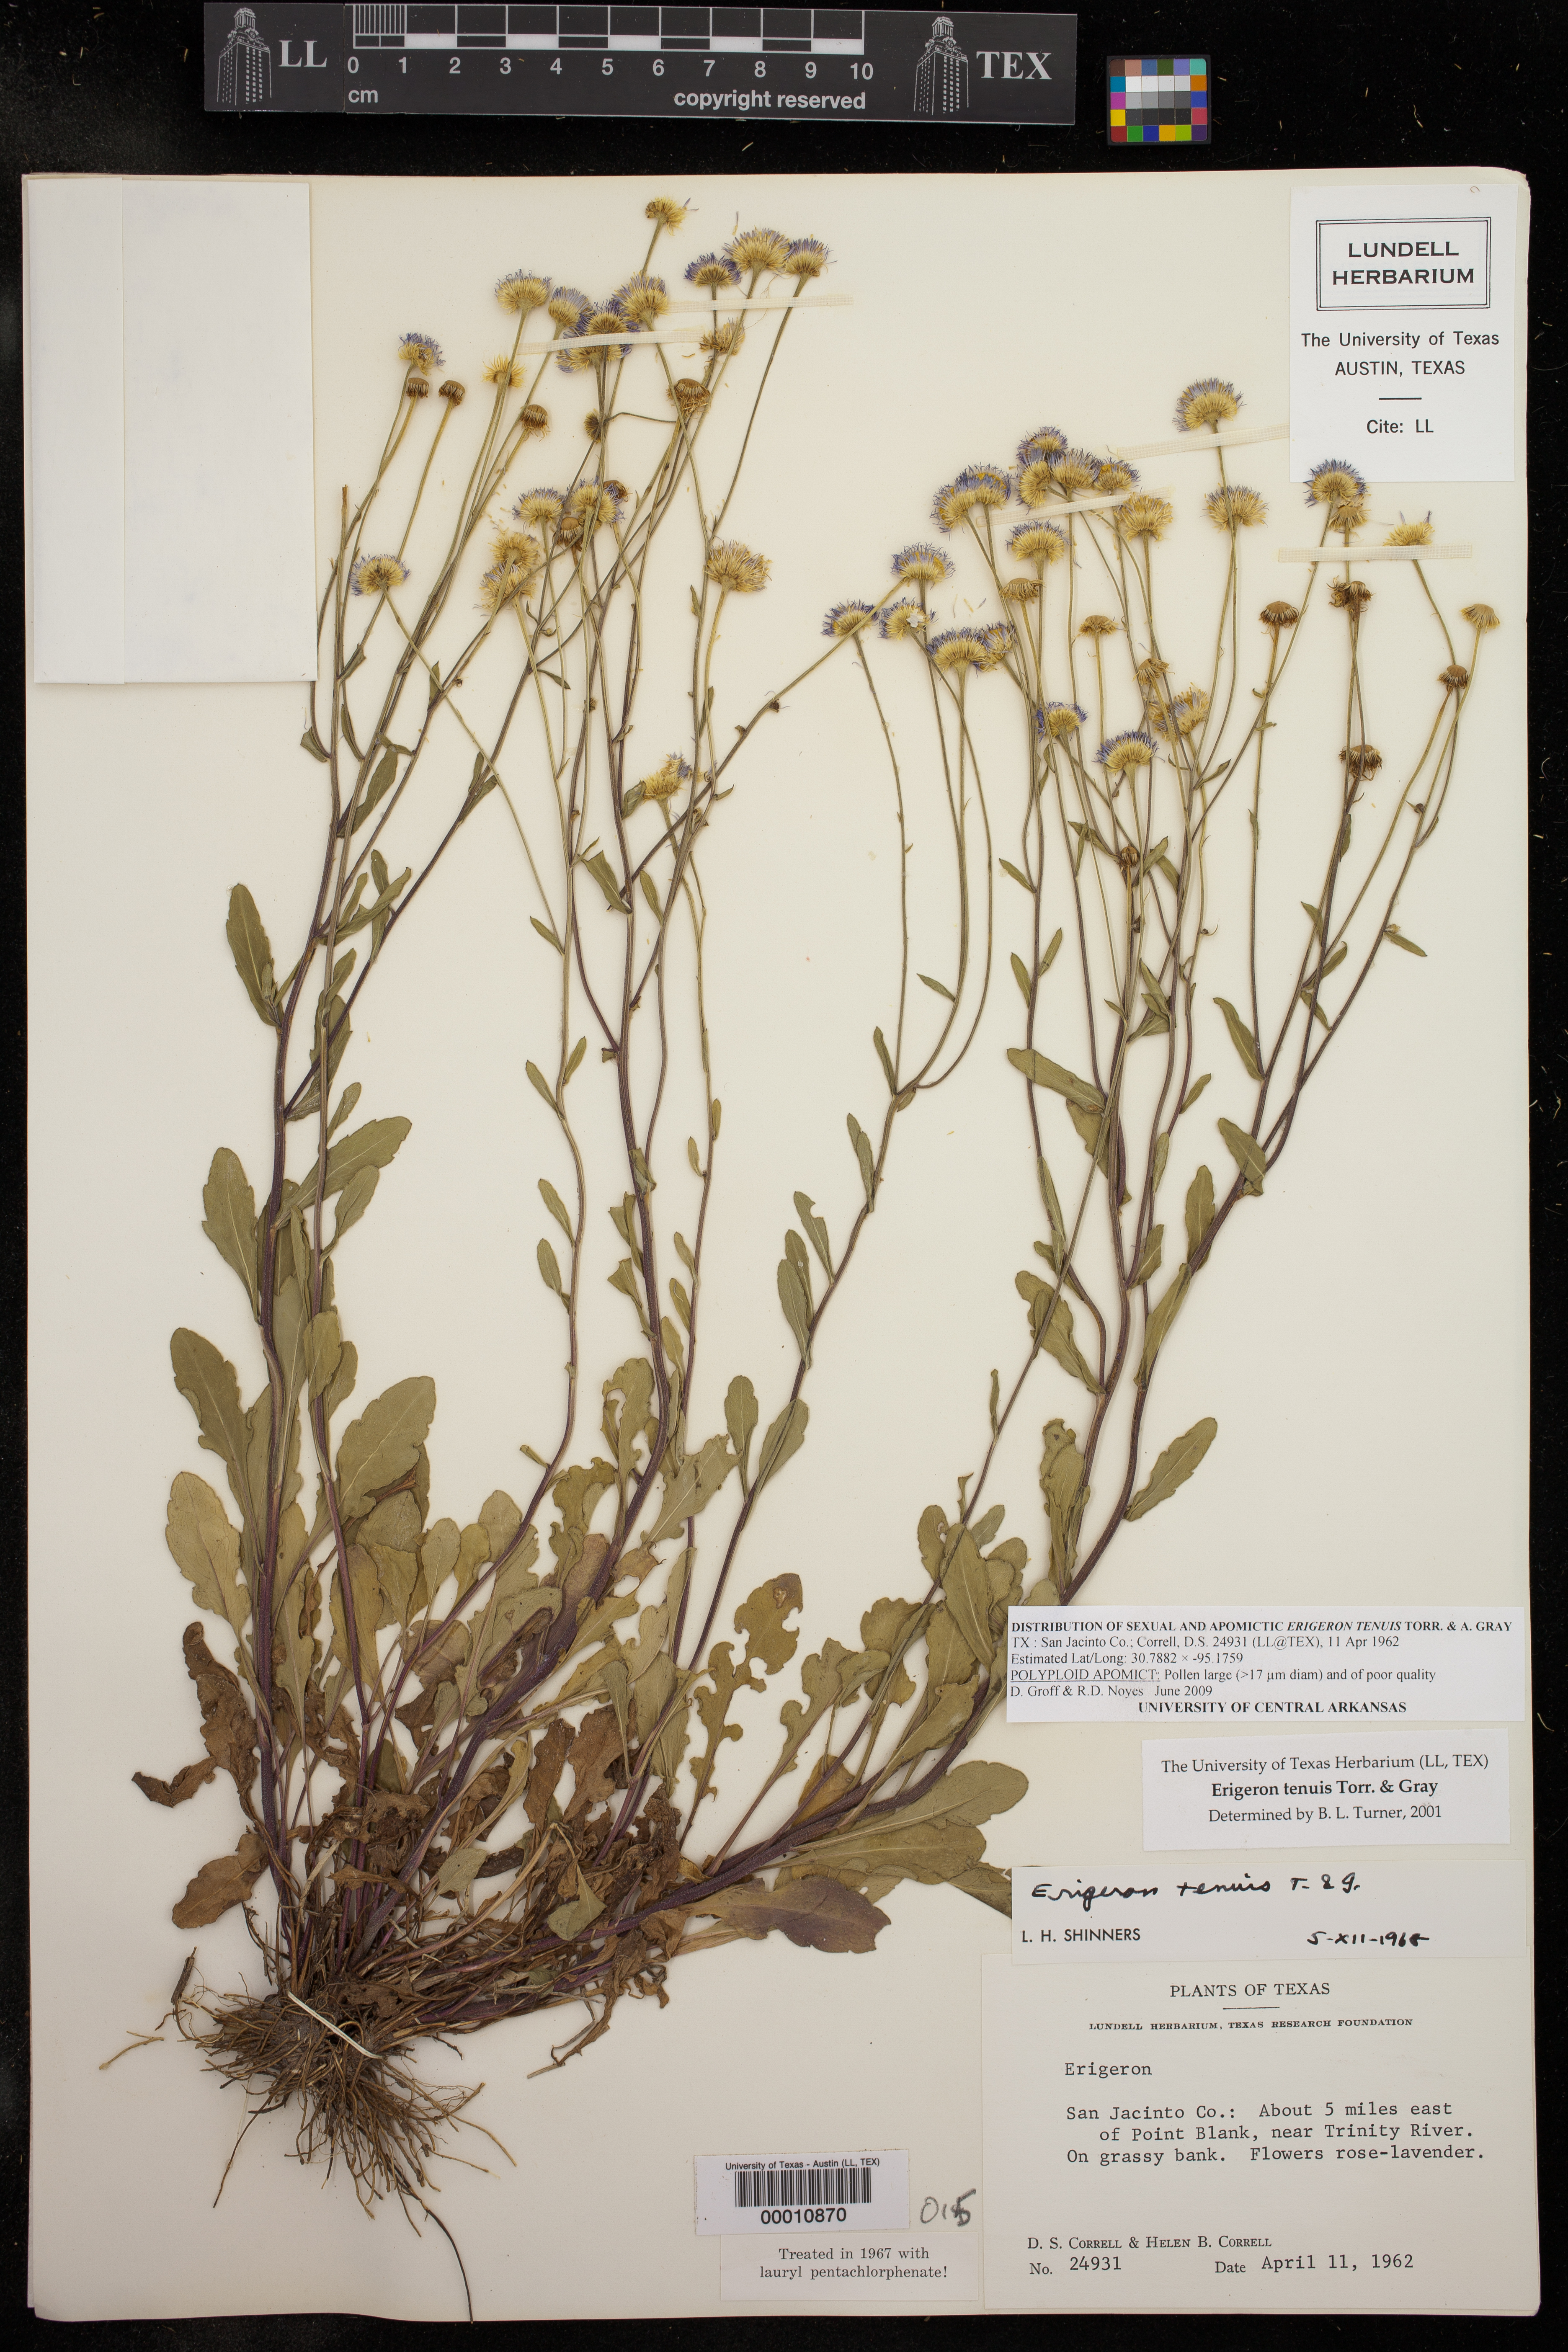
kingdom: Plantae
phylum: Tracheophyta
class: Magnoliopsida
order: Asterales
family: Asteraceae
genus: Erigeron
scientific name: Erigeron tenuis
